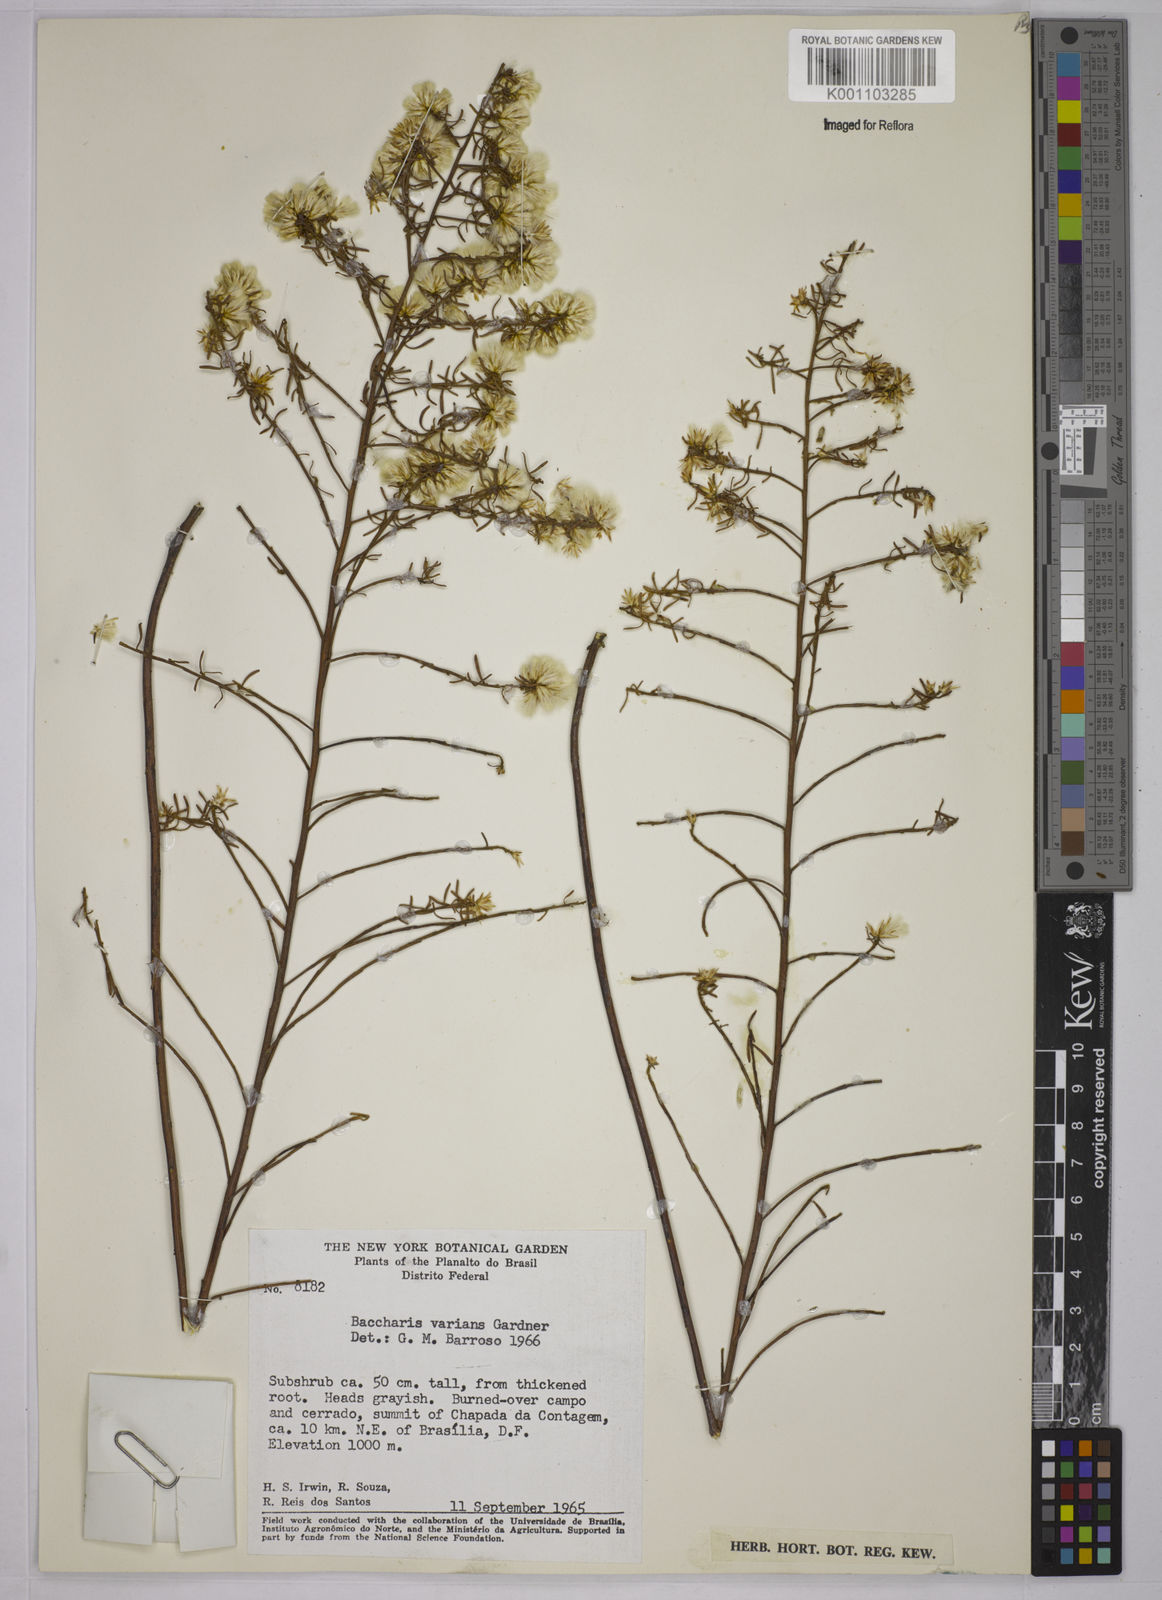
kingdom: Plantae
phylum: Tracheophyta
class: Magnoliopsida
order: Asterales
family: Asteraceae
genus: Baccharis
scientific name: Baccharis varians
